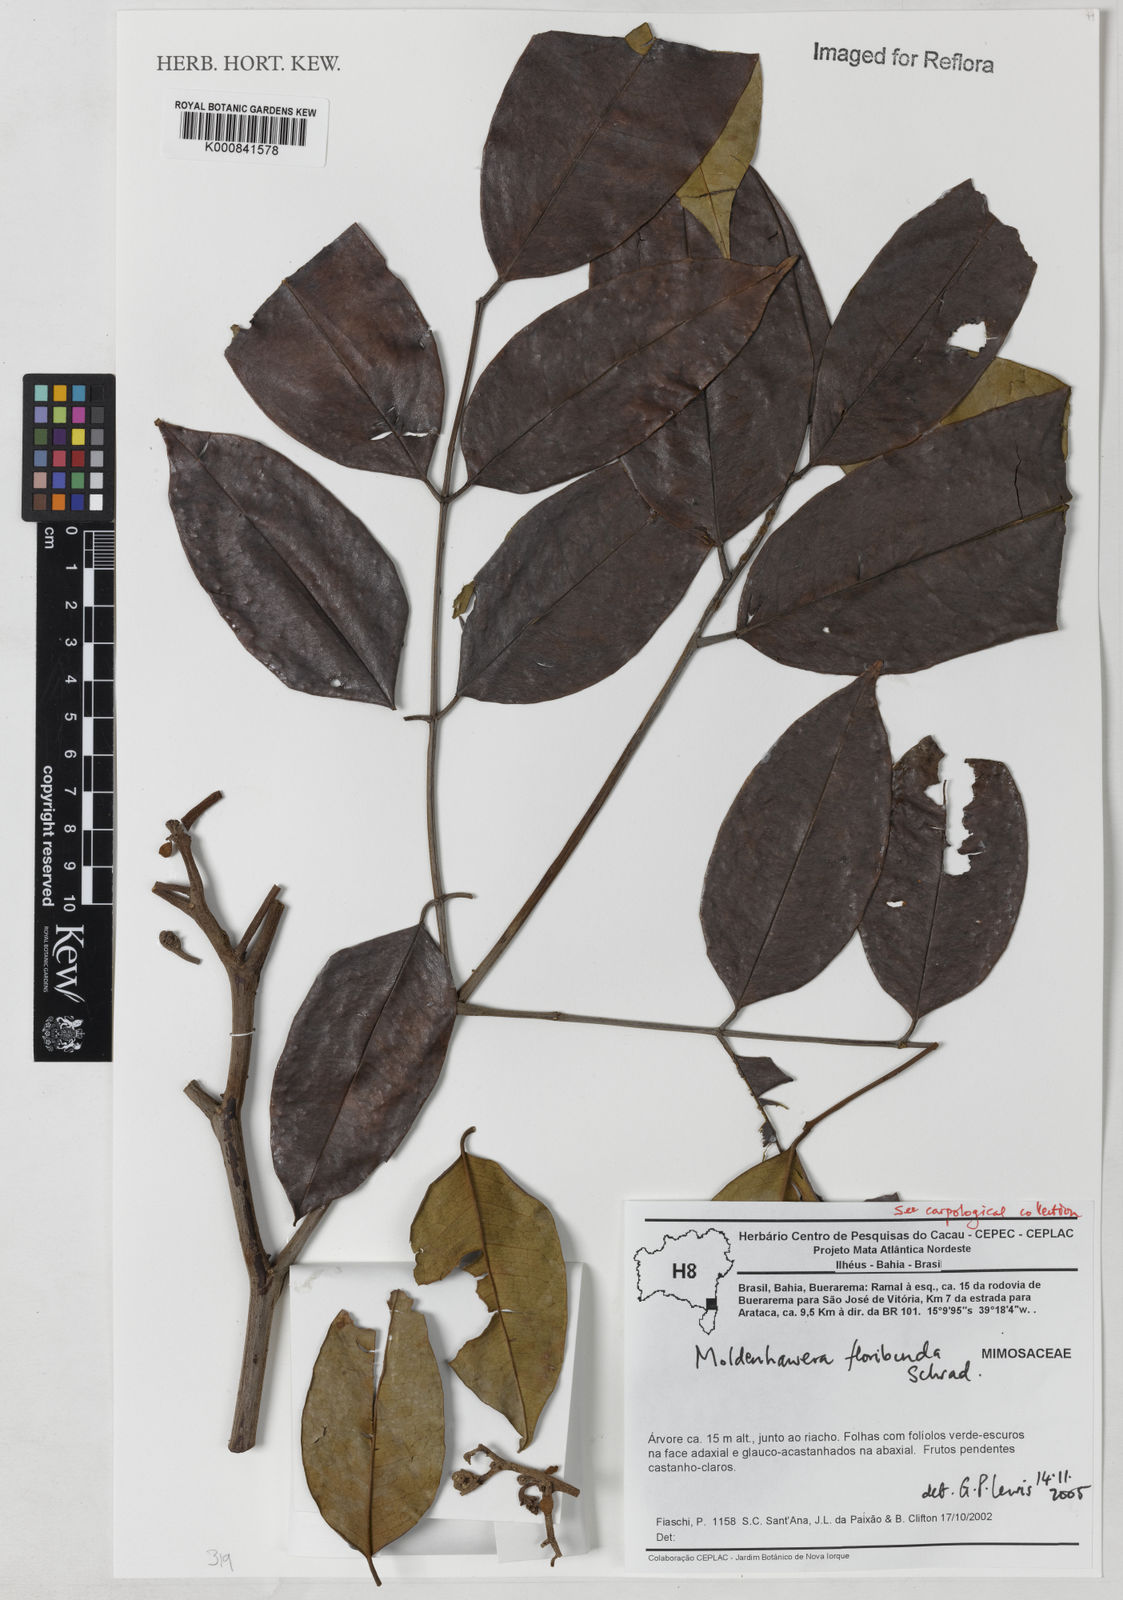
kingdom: Plantae
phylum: Tracheophyta
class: Magnoliopsida
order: Fabales
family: Fabaceae
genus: Moldenhawera
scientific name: Moldenhawera floribunda
